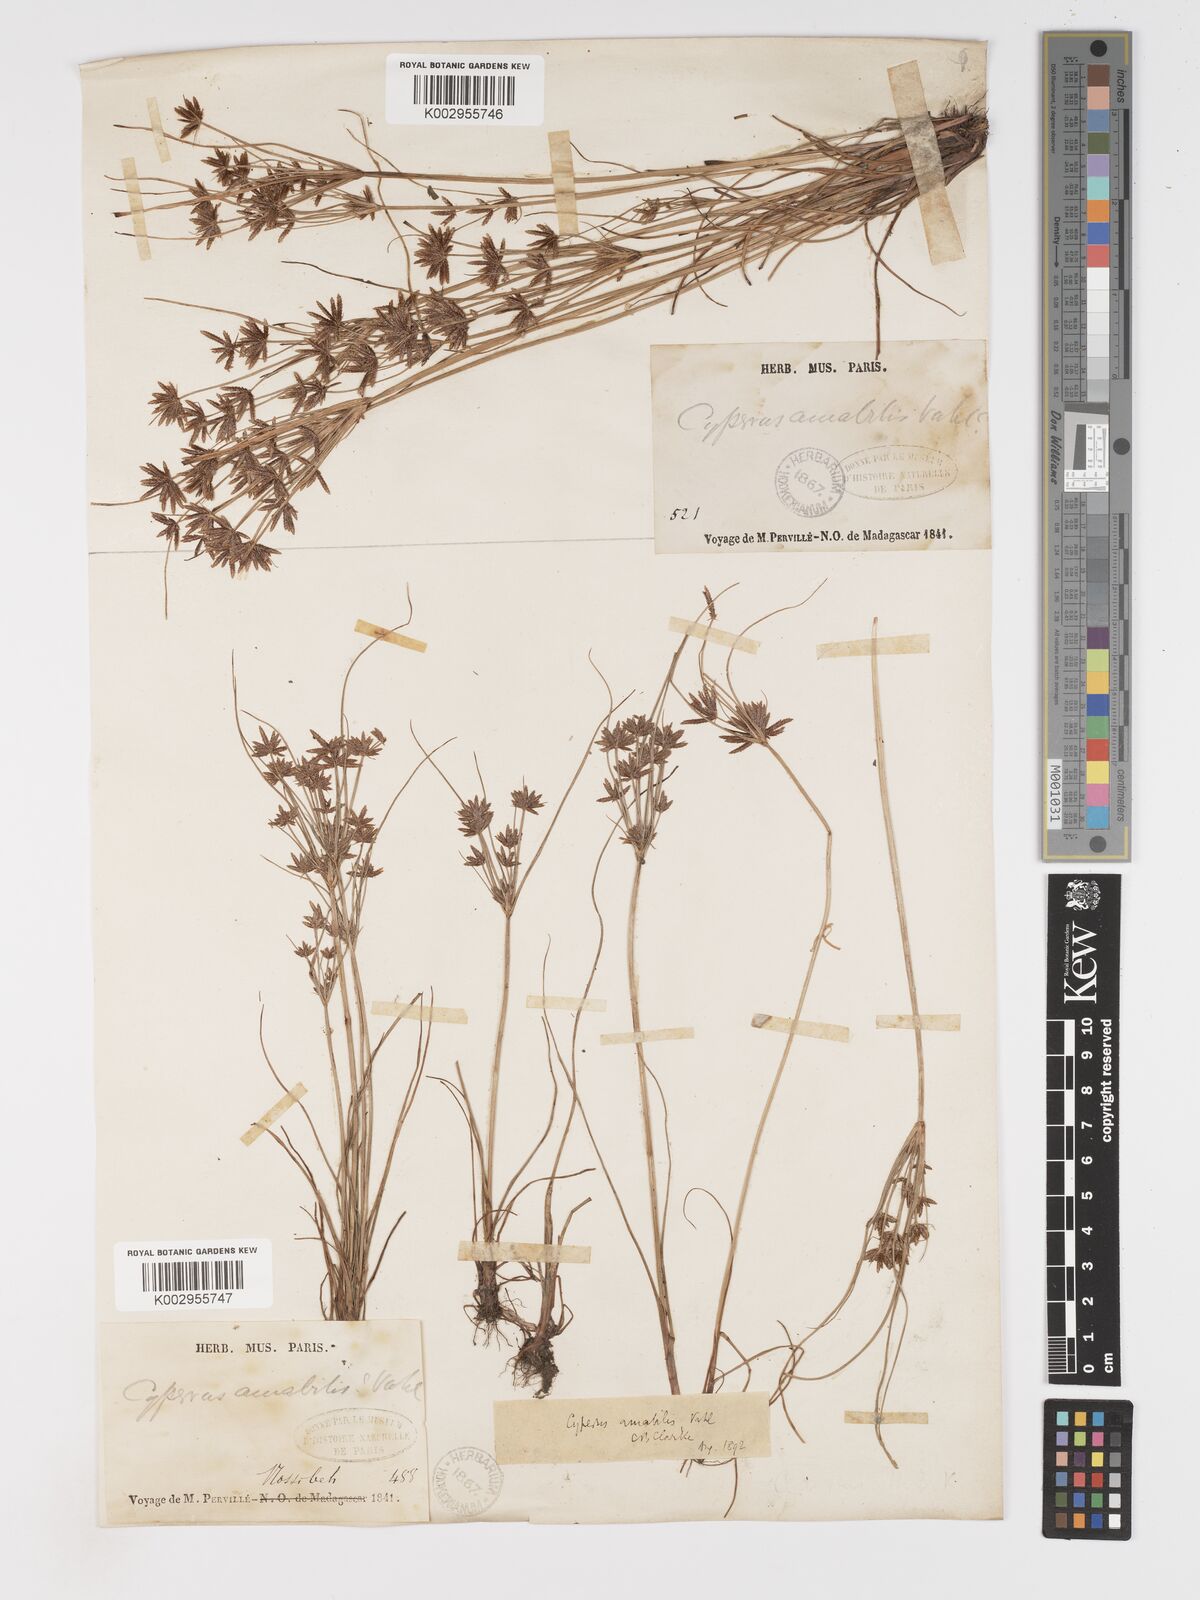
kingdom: Plantae
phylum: Tracheophyta
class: Liliopsida
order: Poales
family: Cyperaceae
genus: Cyperus
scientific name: Cyperus amabilis
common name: Foothill flat sedge
